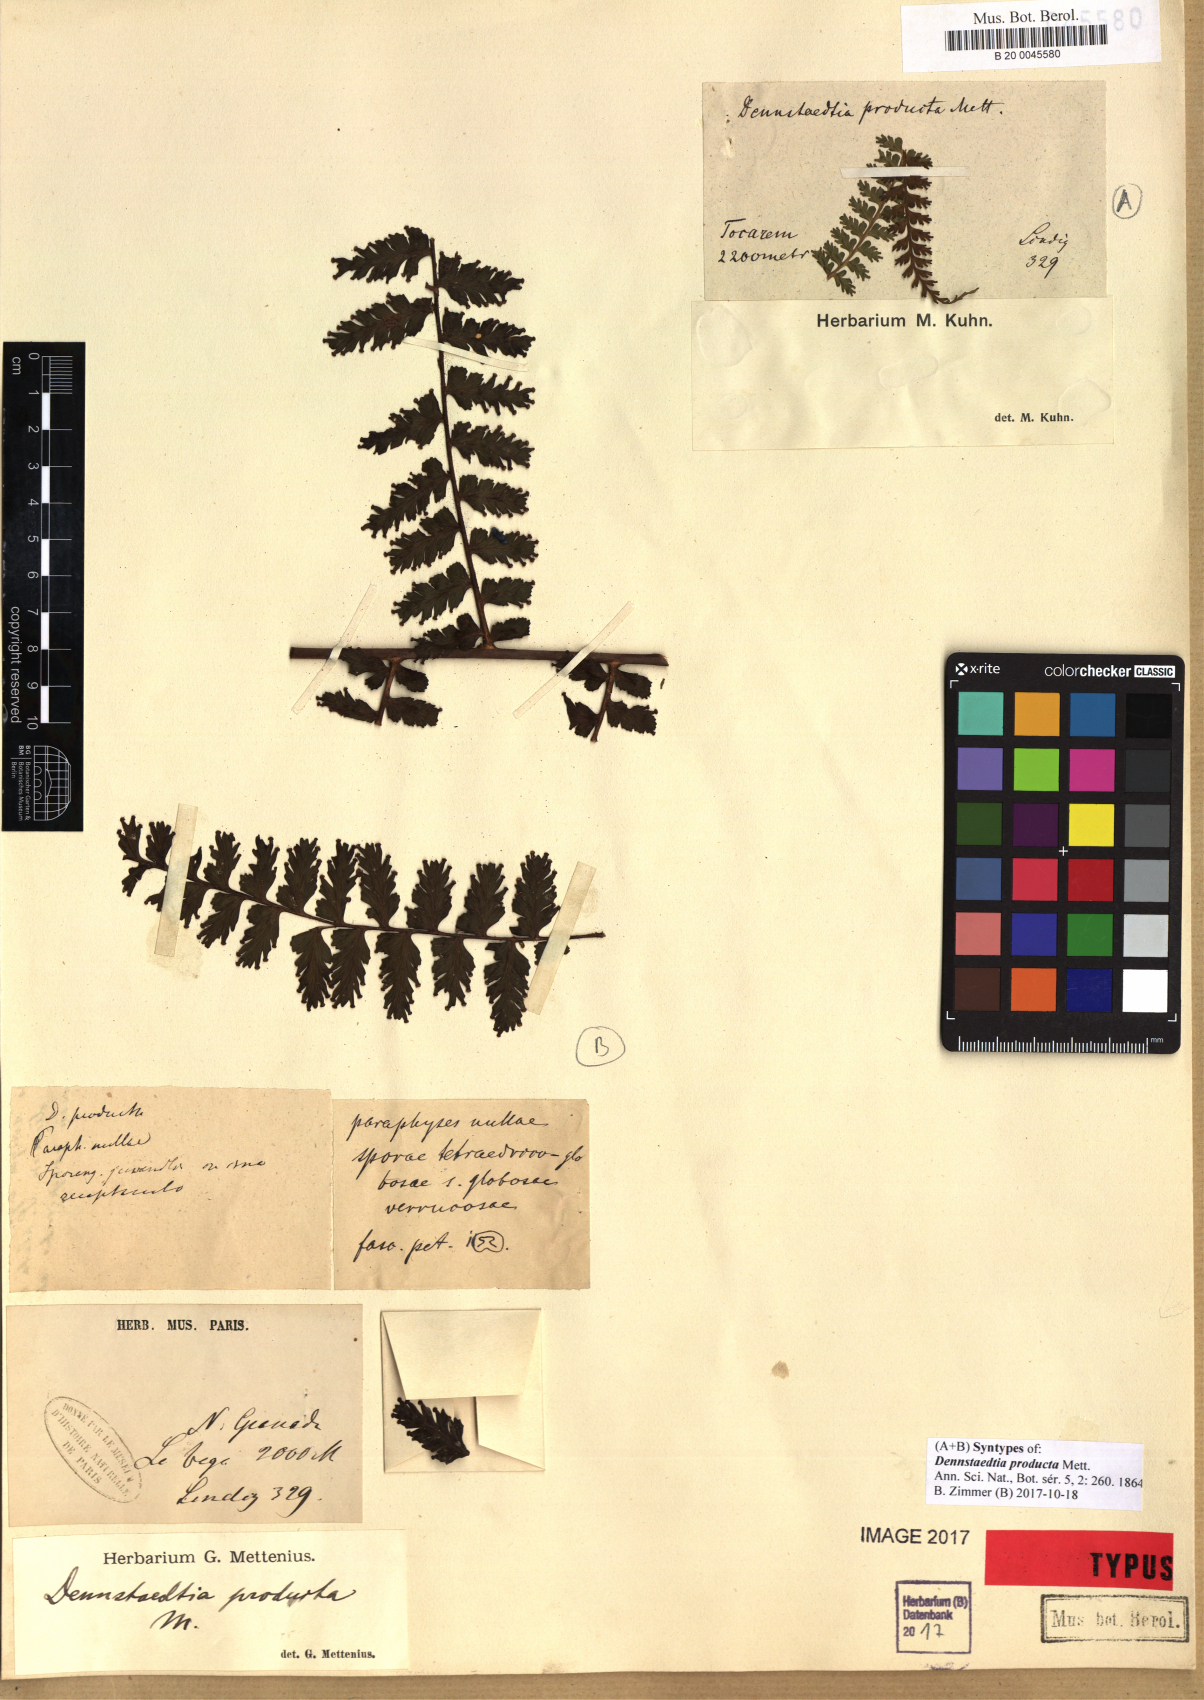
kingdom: Plantae
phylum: Tracheophyta
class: Polypodiopsida
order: Polypodiales
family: Dennstaedtiaceae
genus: Dennstaedtia
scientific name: Dennstaedtia producta
